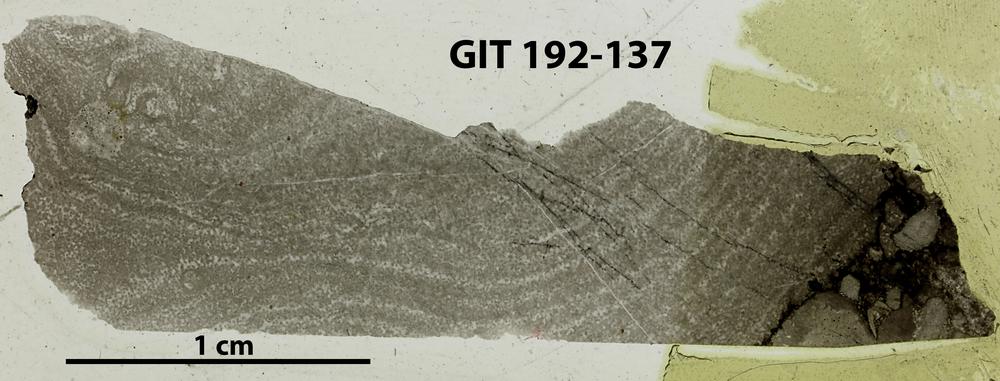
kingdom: Animalia
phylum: Porifera
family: Clathrodictyidae
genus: Clathrodictyon
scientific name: Clathrodictyon
